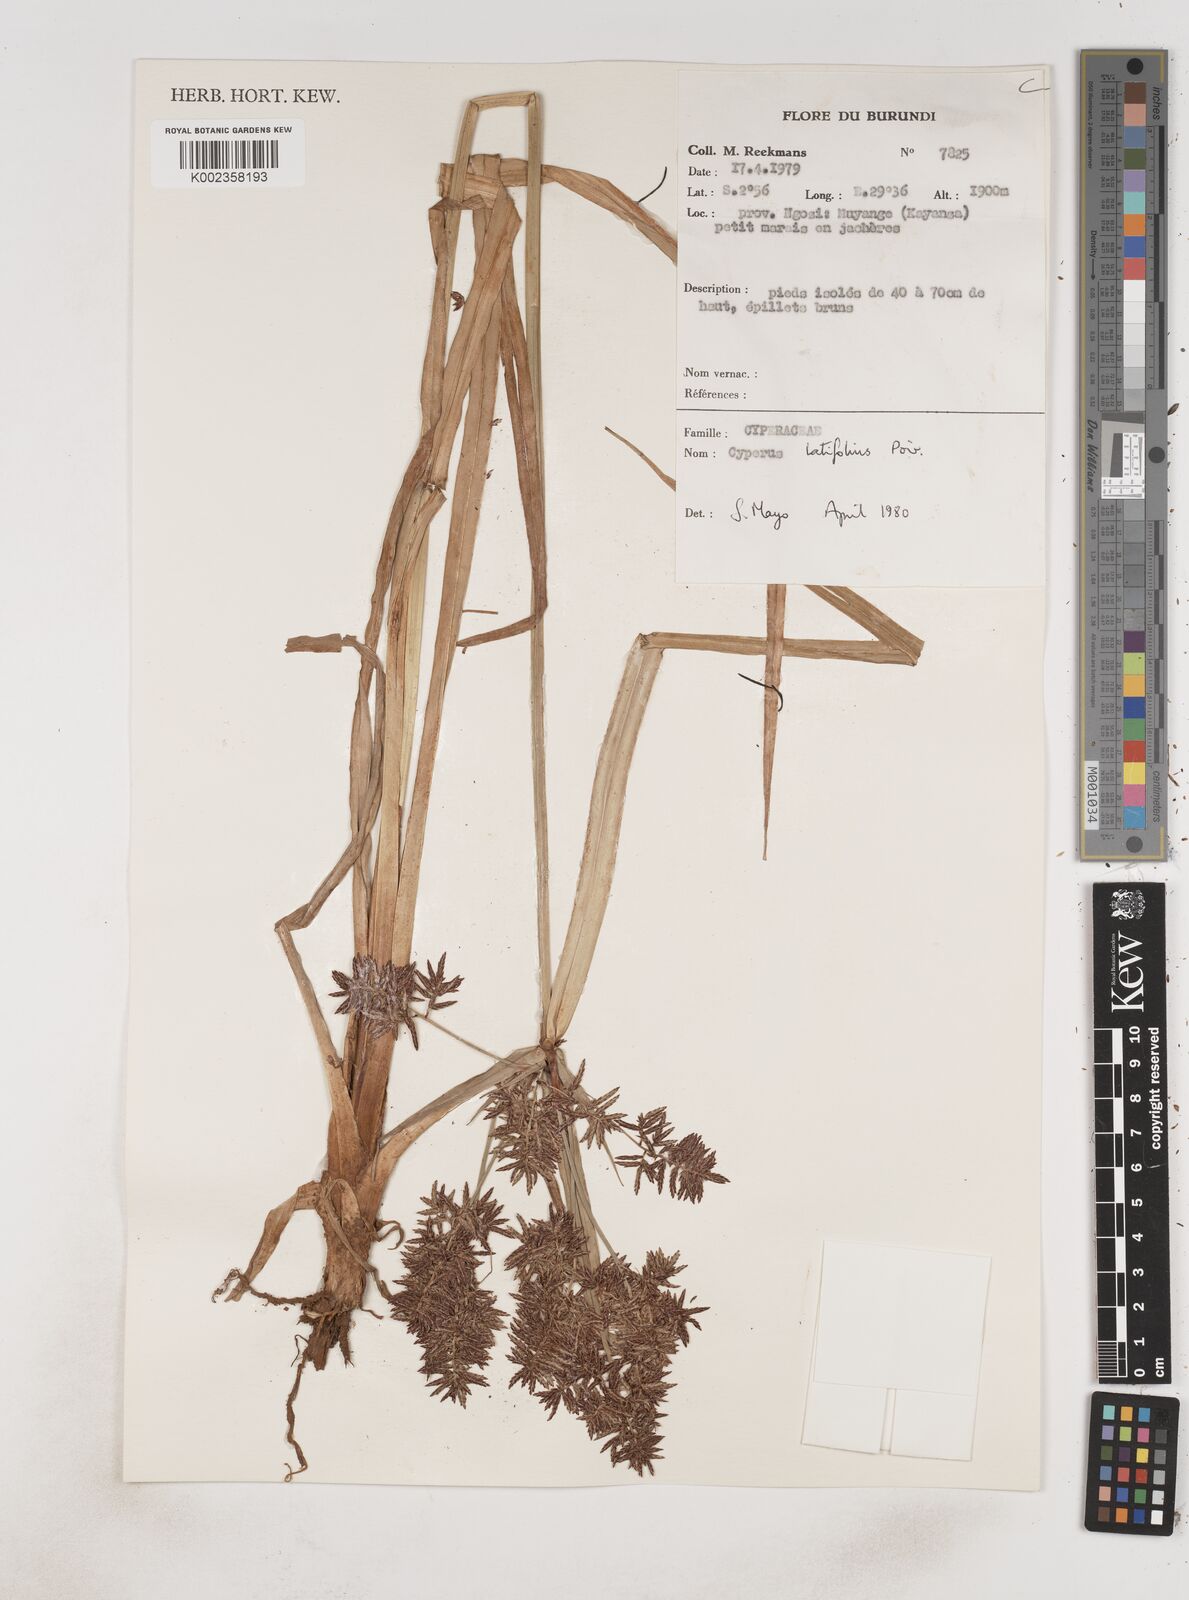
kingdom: Plantae
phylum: Tracheophyta
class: Liliopsida
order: Poales
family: Cyperaceae
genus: Cyperus
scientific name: Cyperus latifolius
